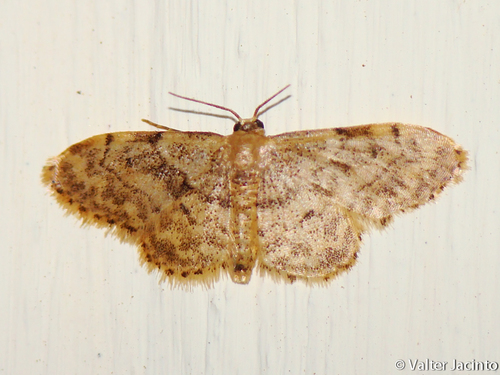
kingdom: Animalia
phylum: Arthropoda
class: Insecta
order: Lepidoptera
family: Geometridae
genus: Idaea
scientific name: Idaea laevigata
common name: Strange wave
